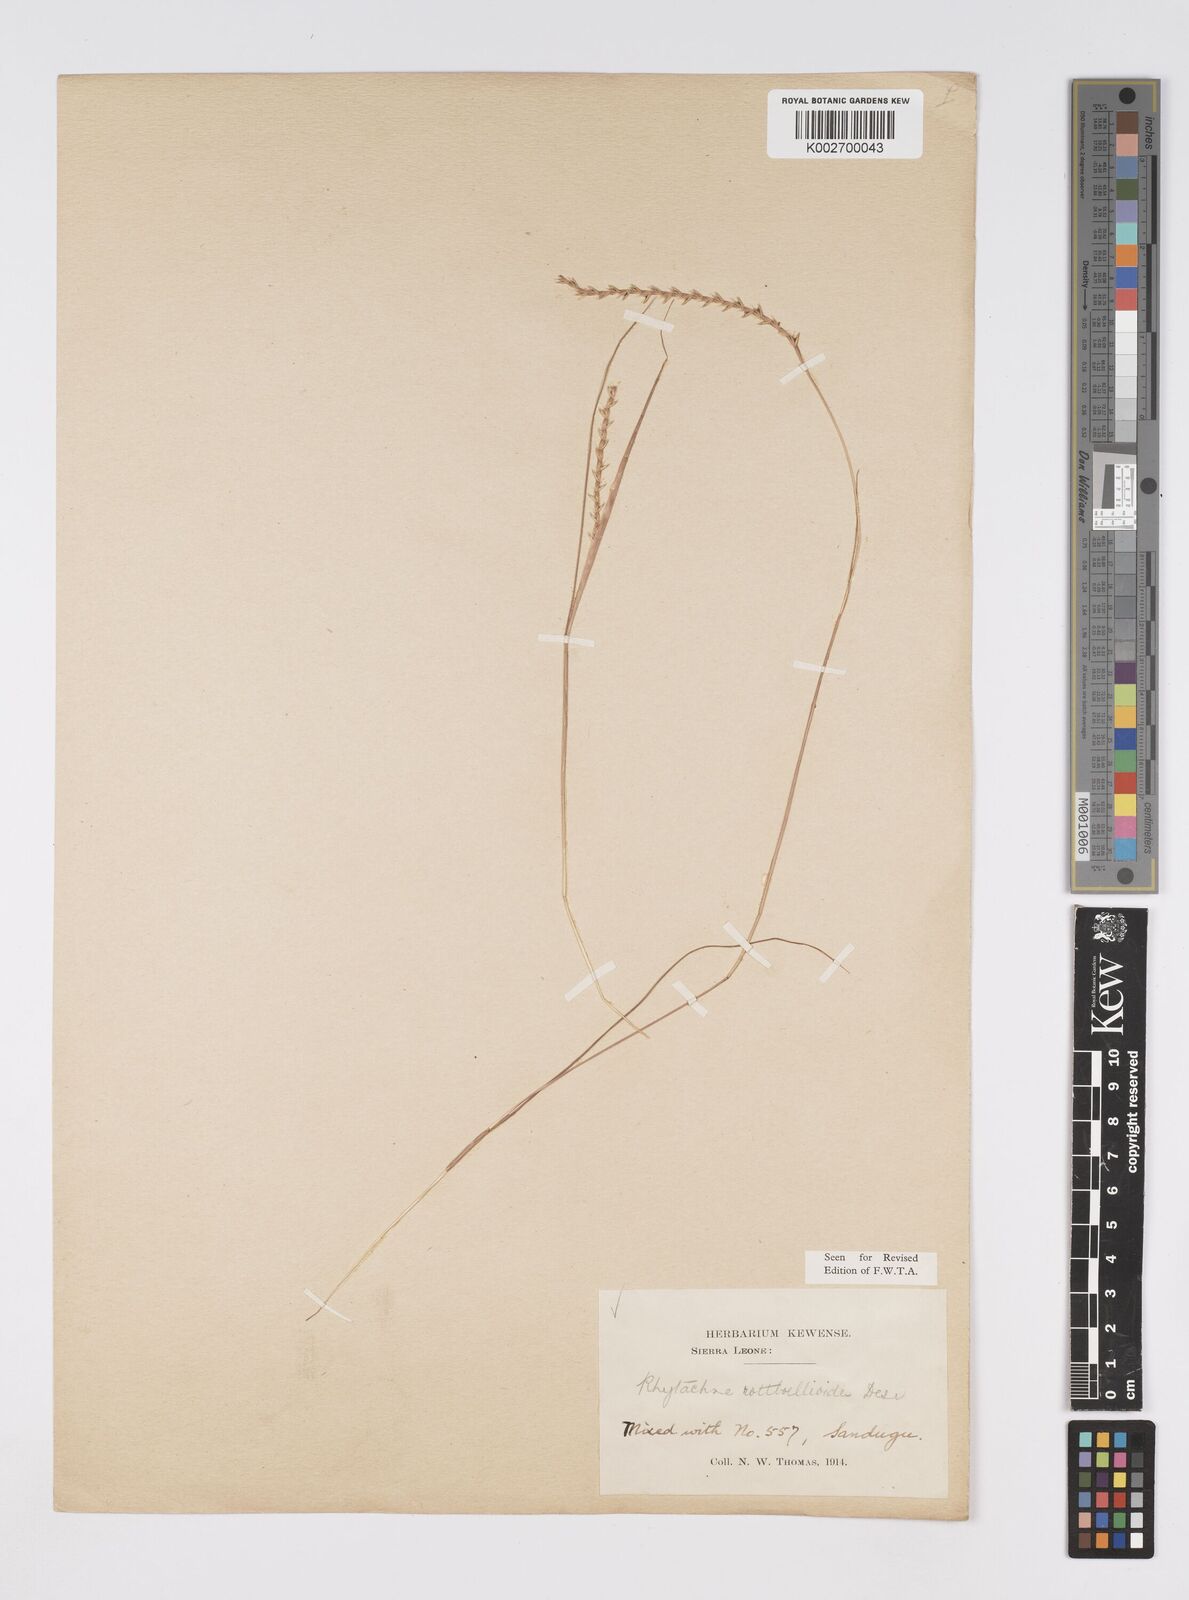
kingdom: Plantae
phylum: Tracheophyta
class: Liliopsida
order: Poales
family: Poaceae
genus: Rhytachne
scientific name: Rhytachne rottboellioides
